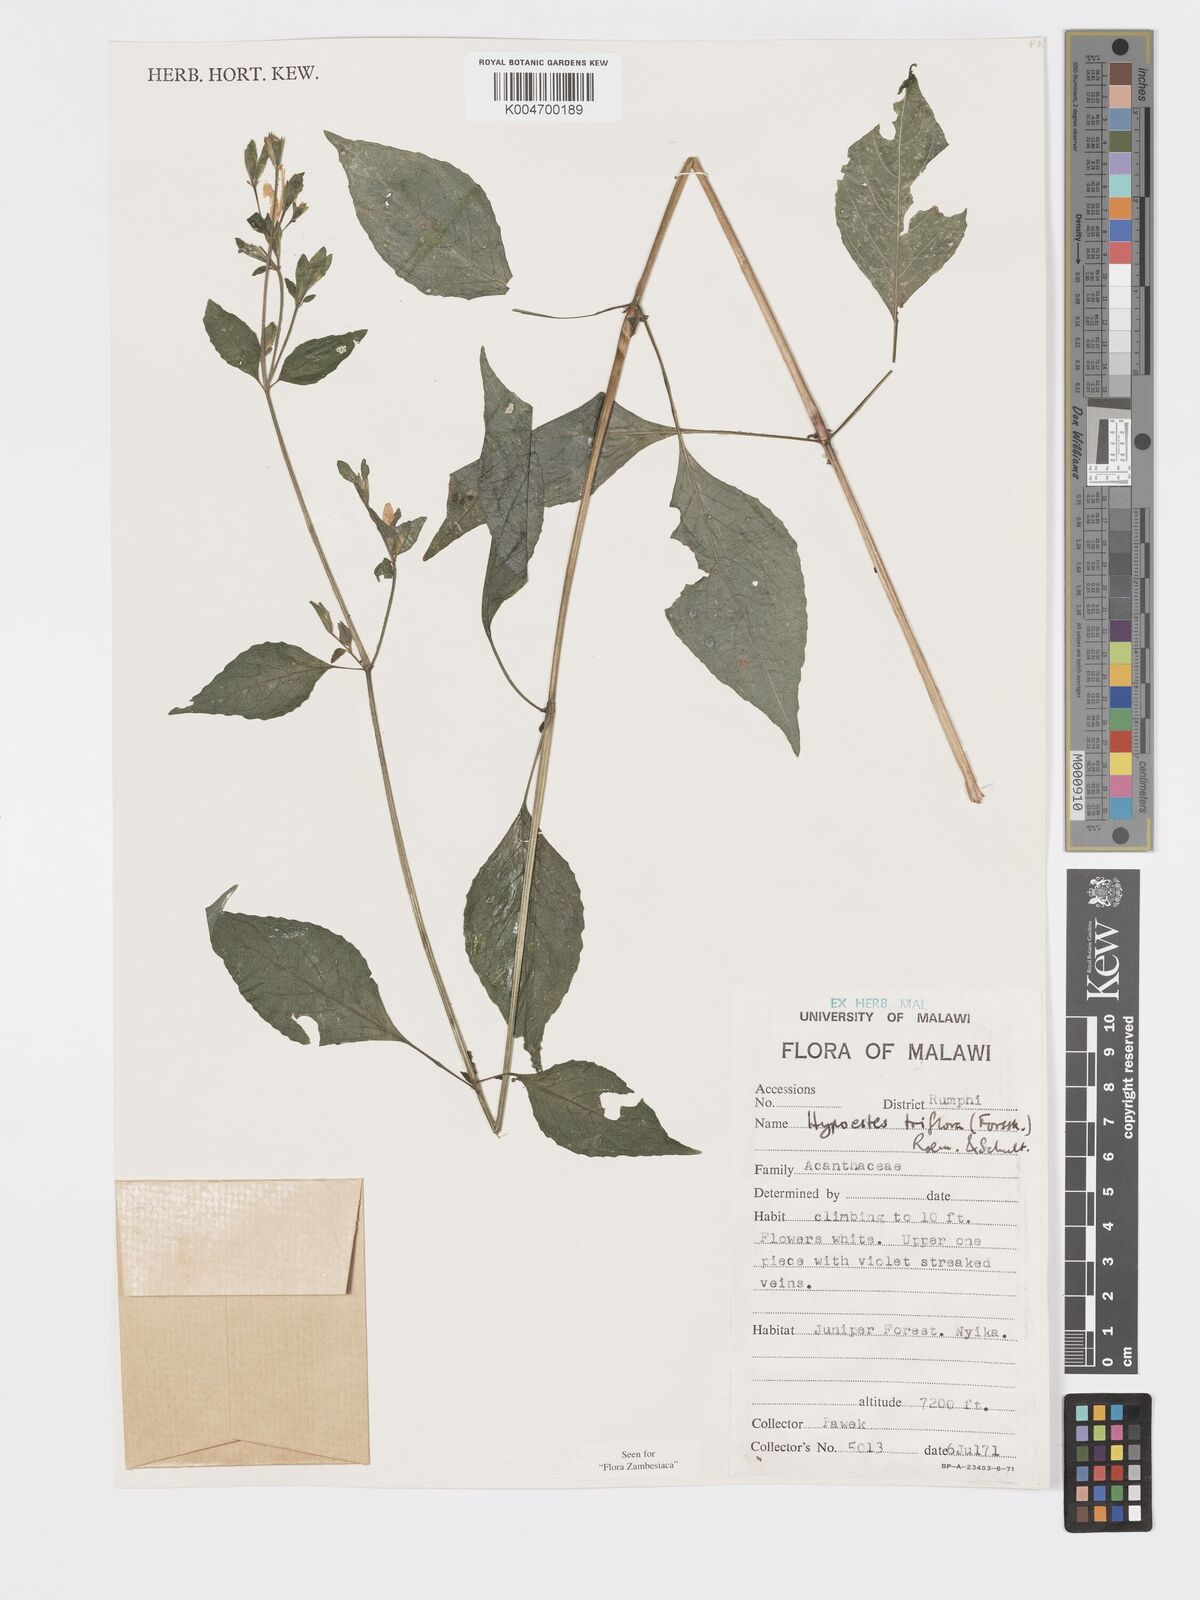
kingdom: Plantae
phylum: Tracheophyta
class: Magnoliopsida
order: Lamiales
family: Acanthaceae
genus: Hypoestes
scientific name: Hypoestes triflora
